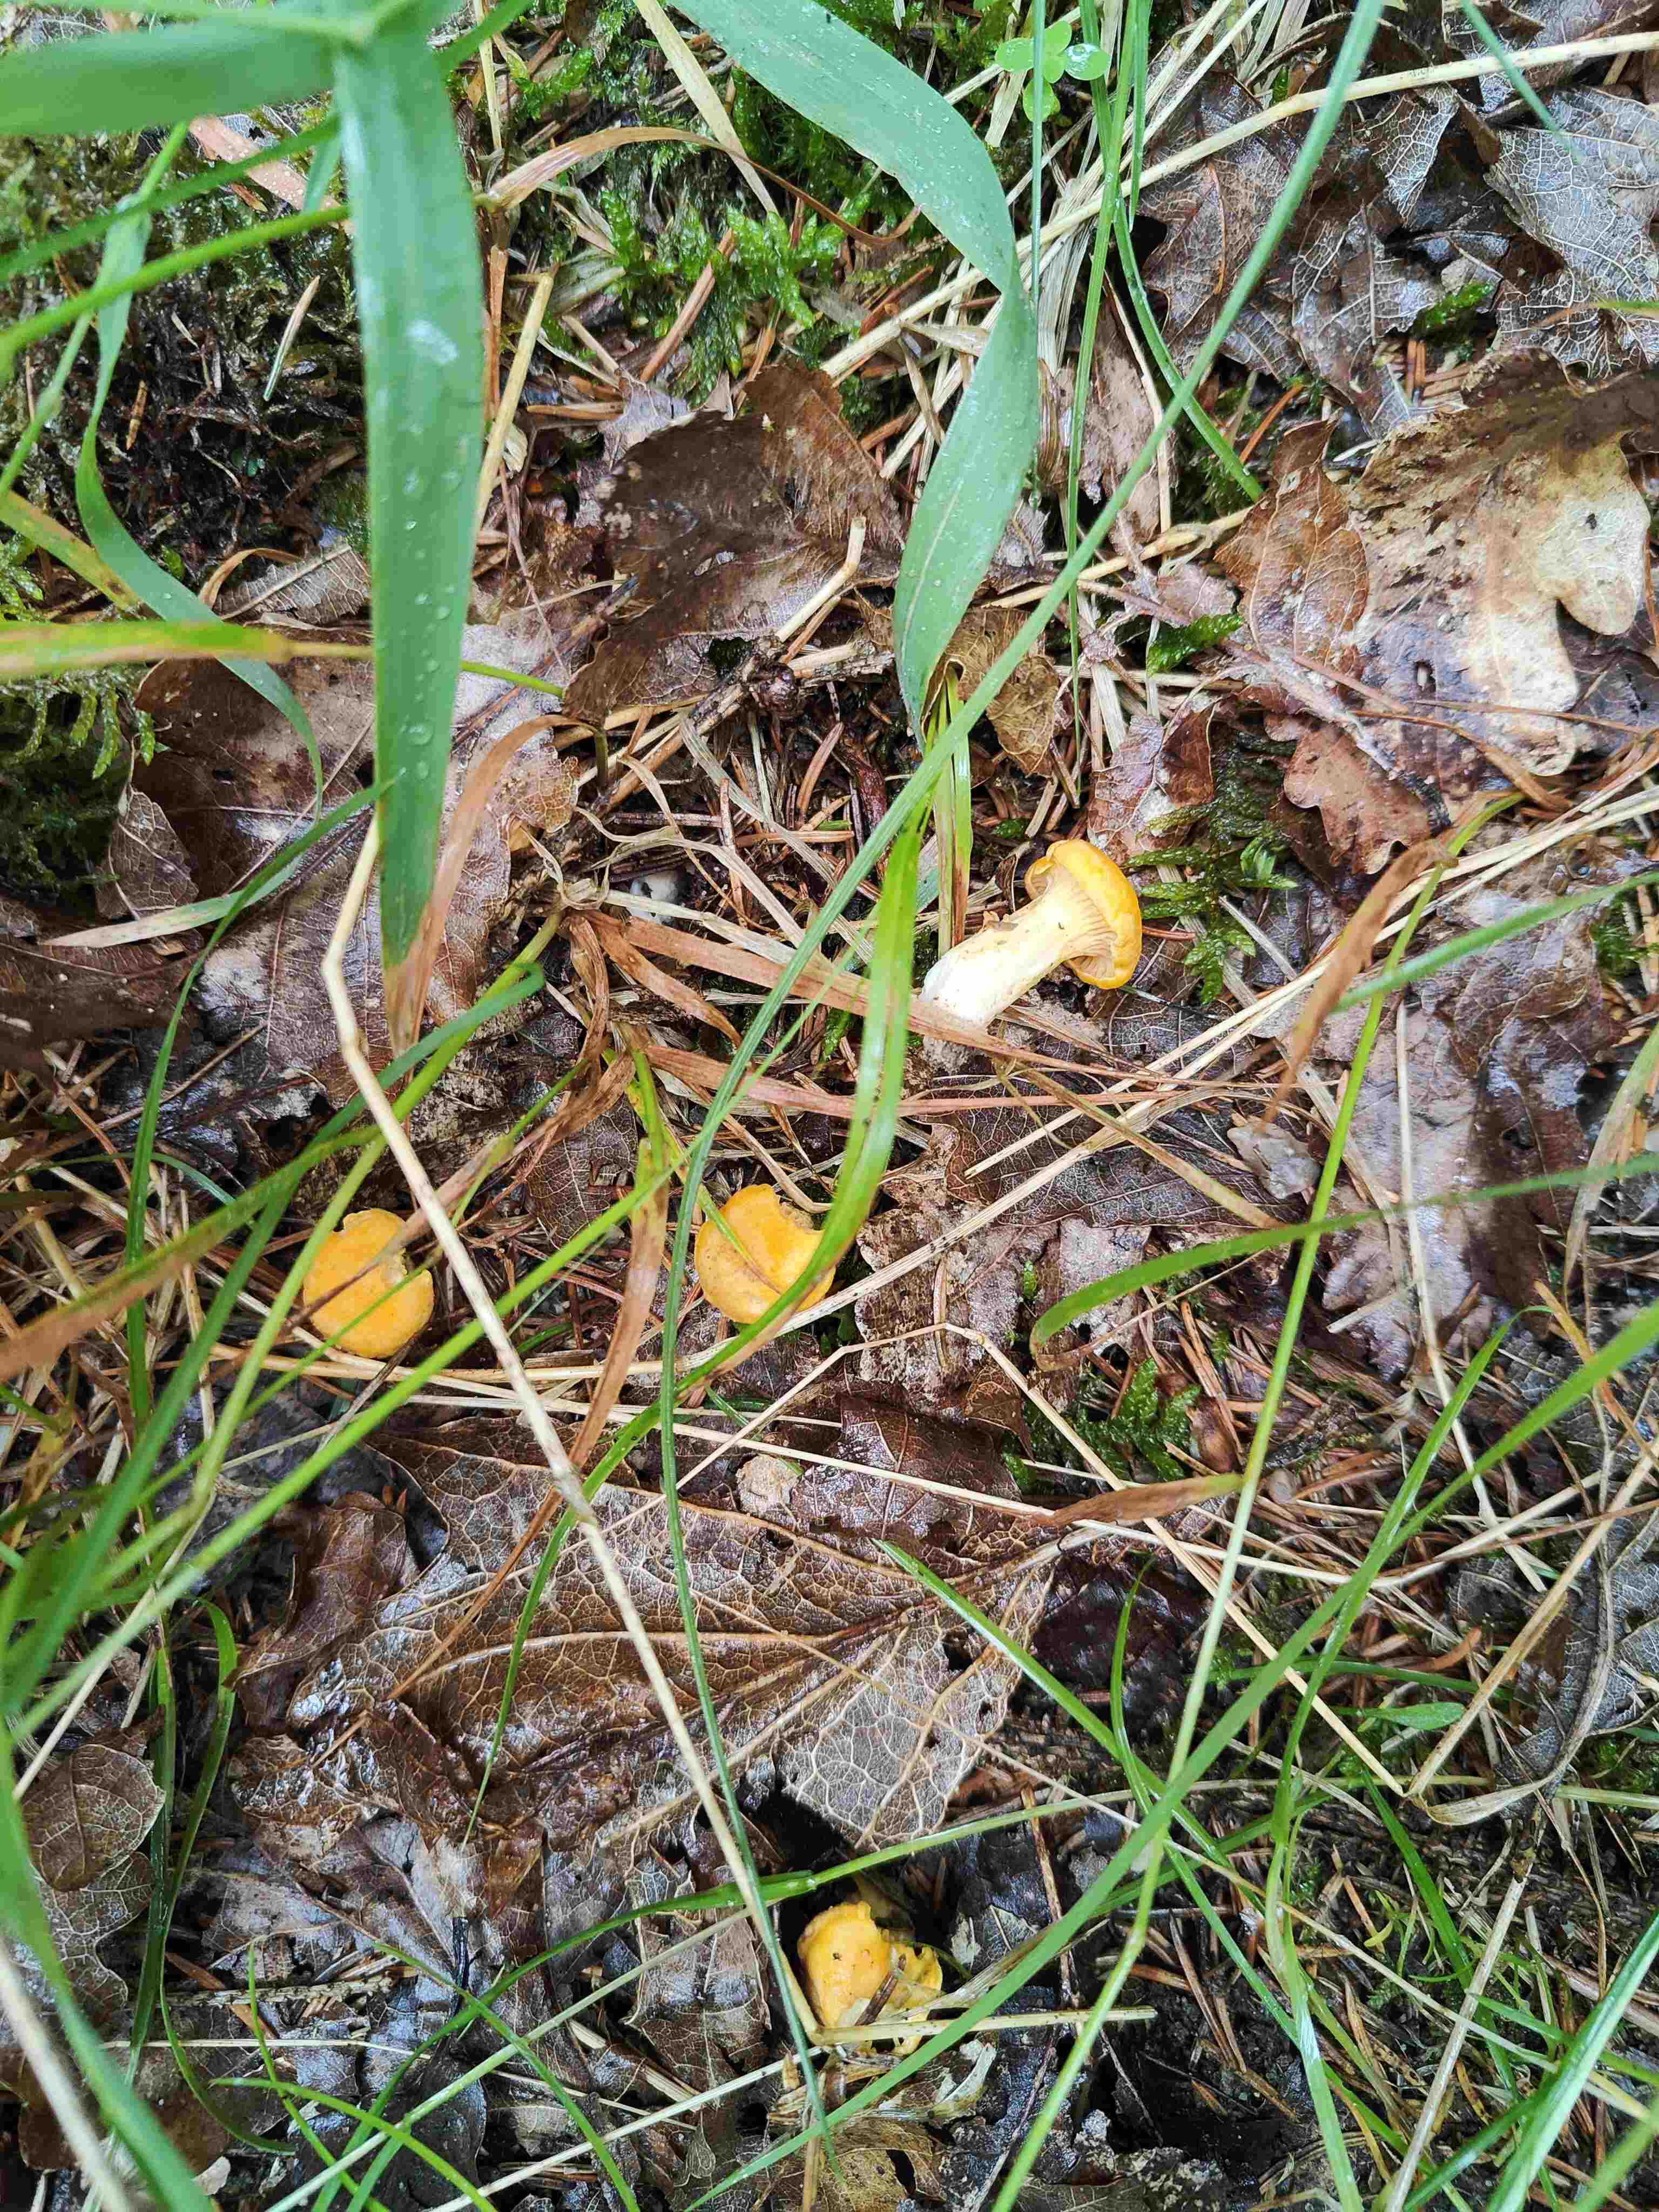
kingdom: Fungi
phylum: Basidiomycota
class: Agaricomycetes
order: Cantharellales
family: Hydnaceae
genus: Cantharellus
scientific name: Cantharellus cibarius
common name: almindelig kantarel
